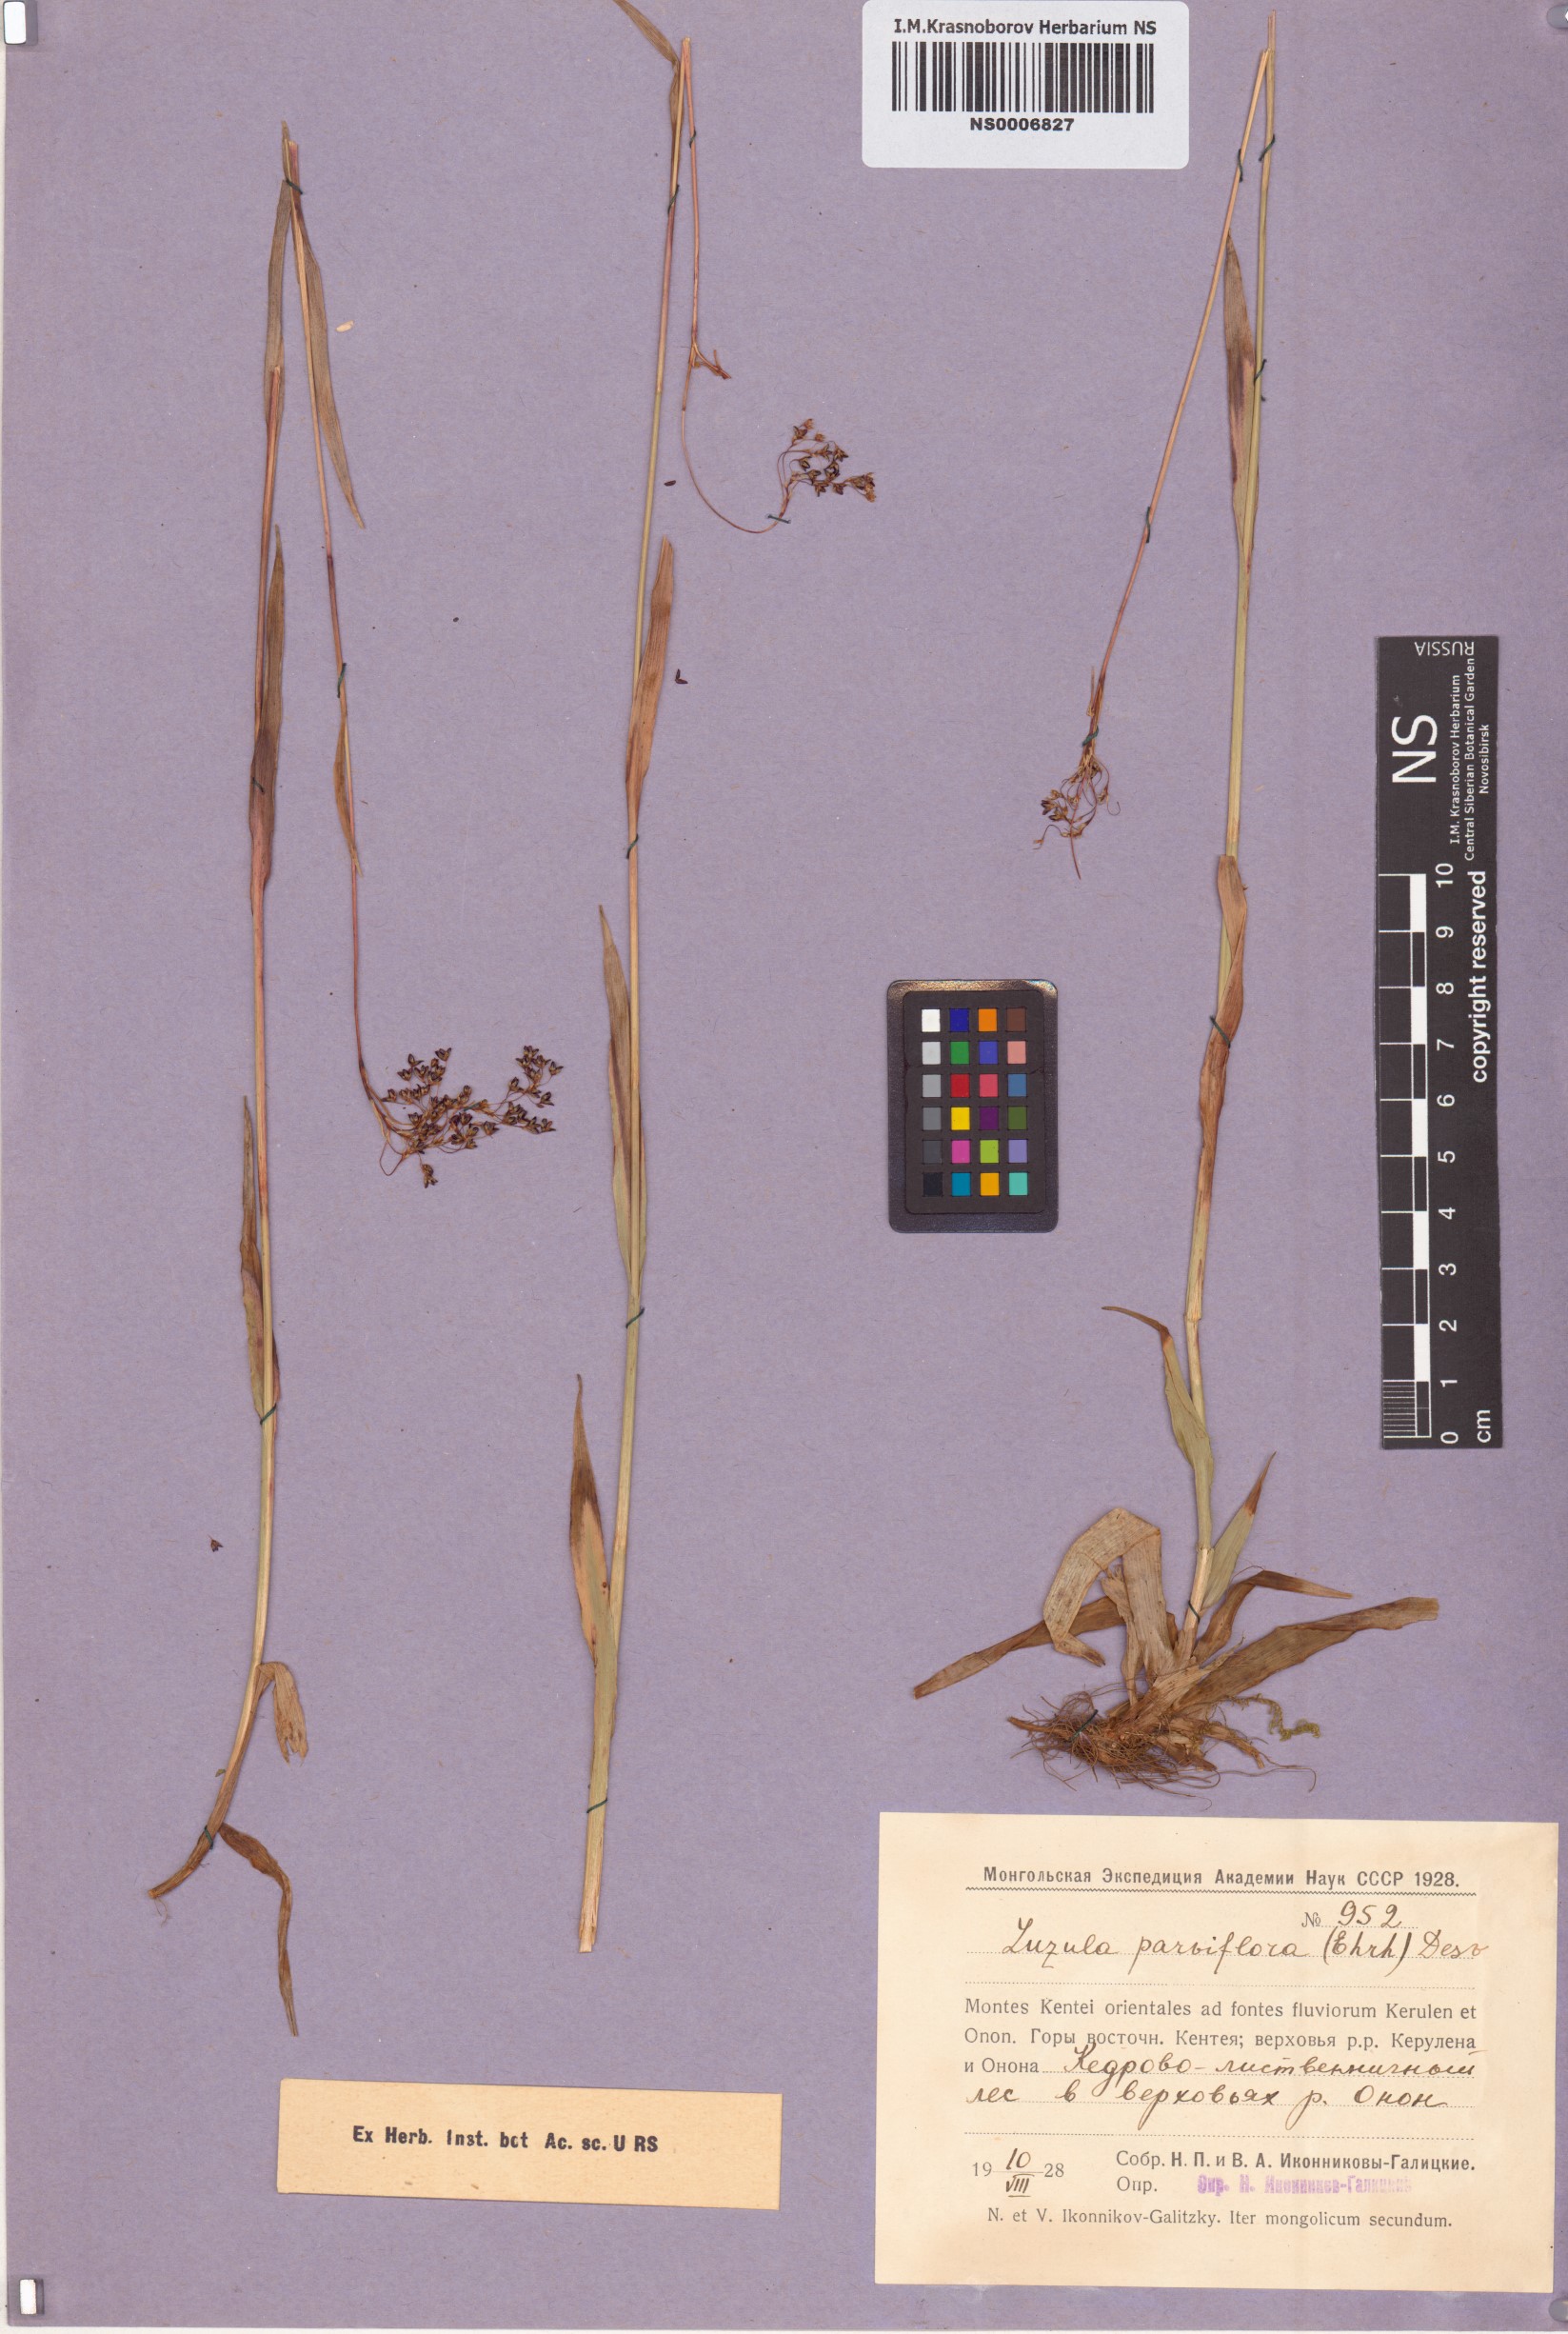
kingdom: Plantae
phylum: Tracheophyta
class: Liliopsida
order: Poales
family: Juncaceae
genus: Luzula
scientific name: Luzula parviflora
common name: Millet woodrush
